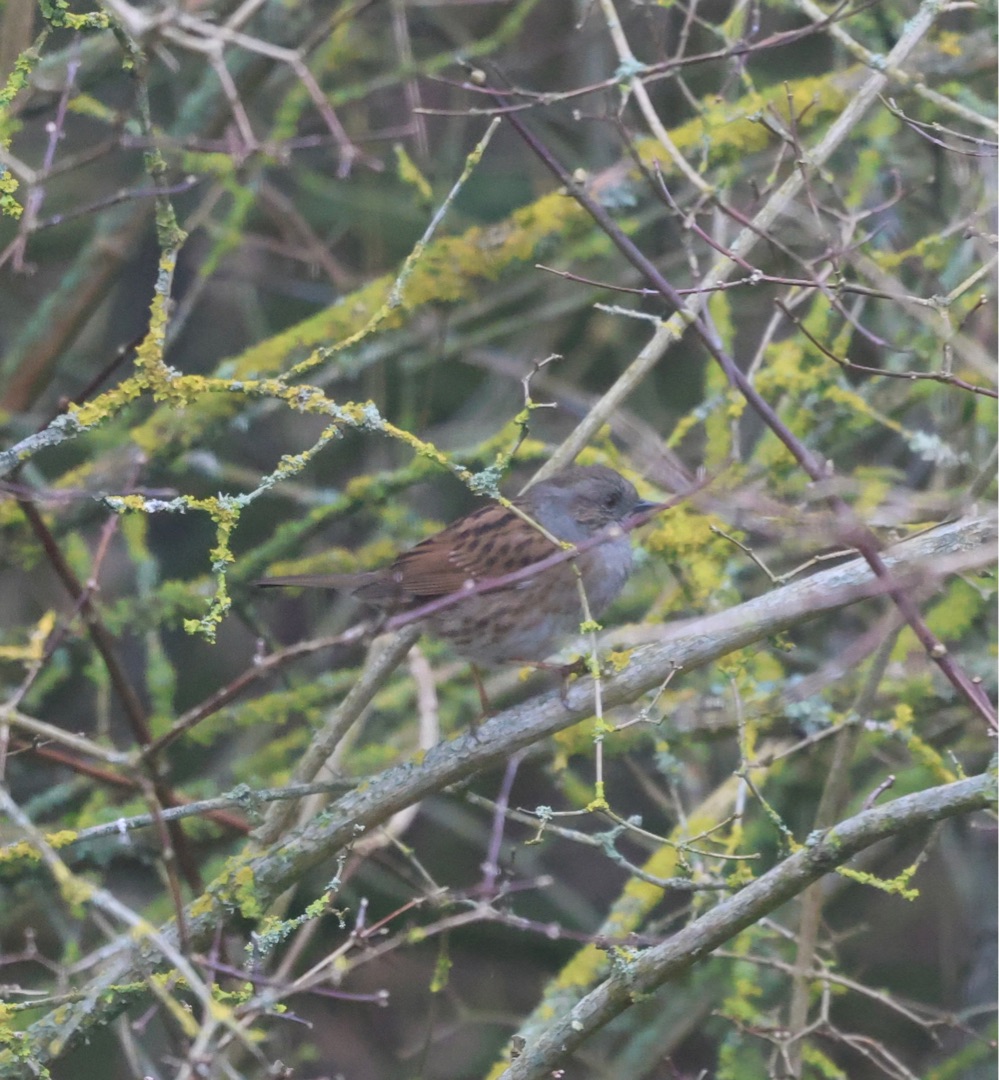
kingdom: Animalia
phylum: Chordata
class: Aves
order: Passeriformes
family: Prunellidae
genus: Prunella
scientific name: Prunella modularis
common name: Jernspurv
